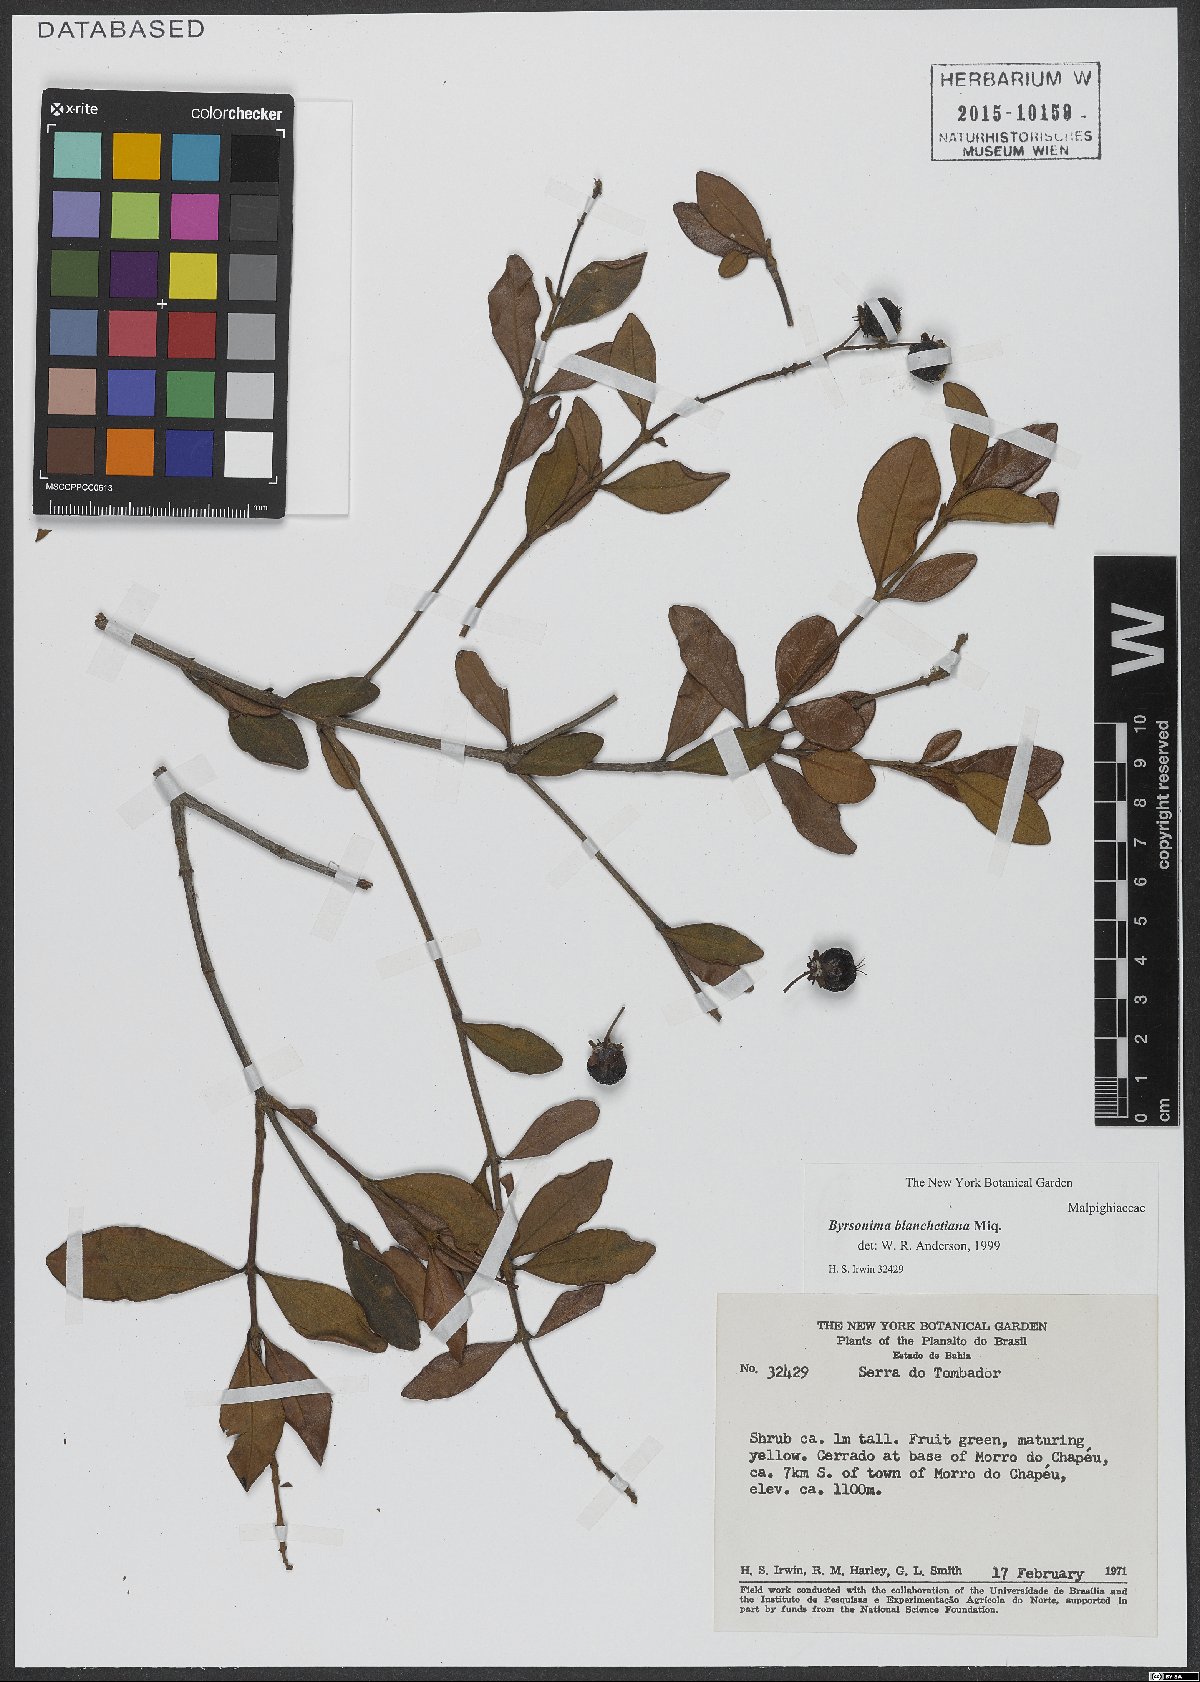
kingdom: Plantae
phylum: Tracheophyta
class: Magnoliopsida
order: Malpighiales
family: Malpighiaceae
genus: Byrsonima
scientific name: Byrsonima bicorniculata
